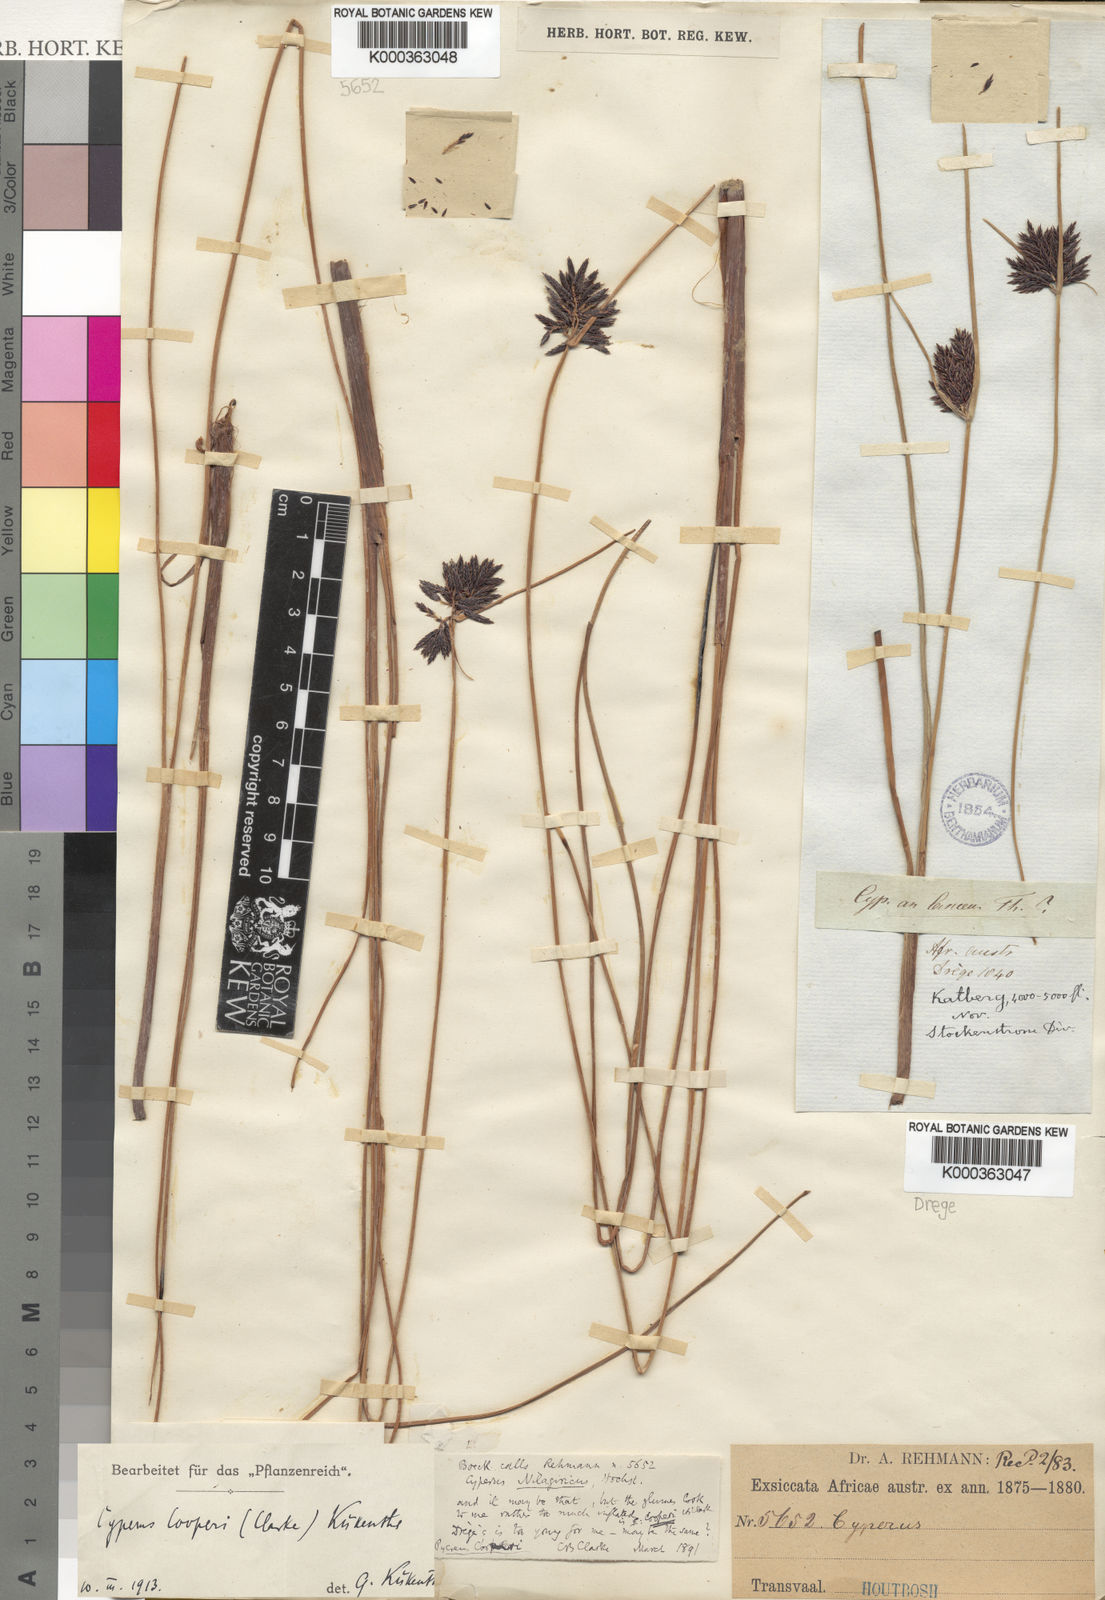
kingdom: Plantae
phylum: Tracheophyta
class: Liliopsida
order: Poales
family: Cyperaceae
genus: Cyperus
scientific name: Cyperus aethiops
